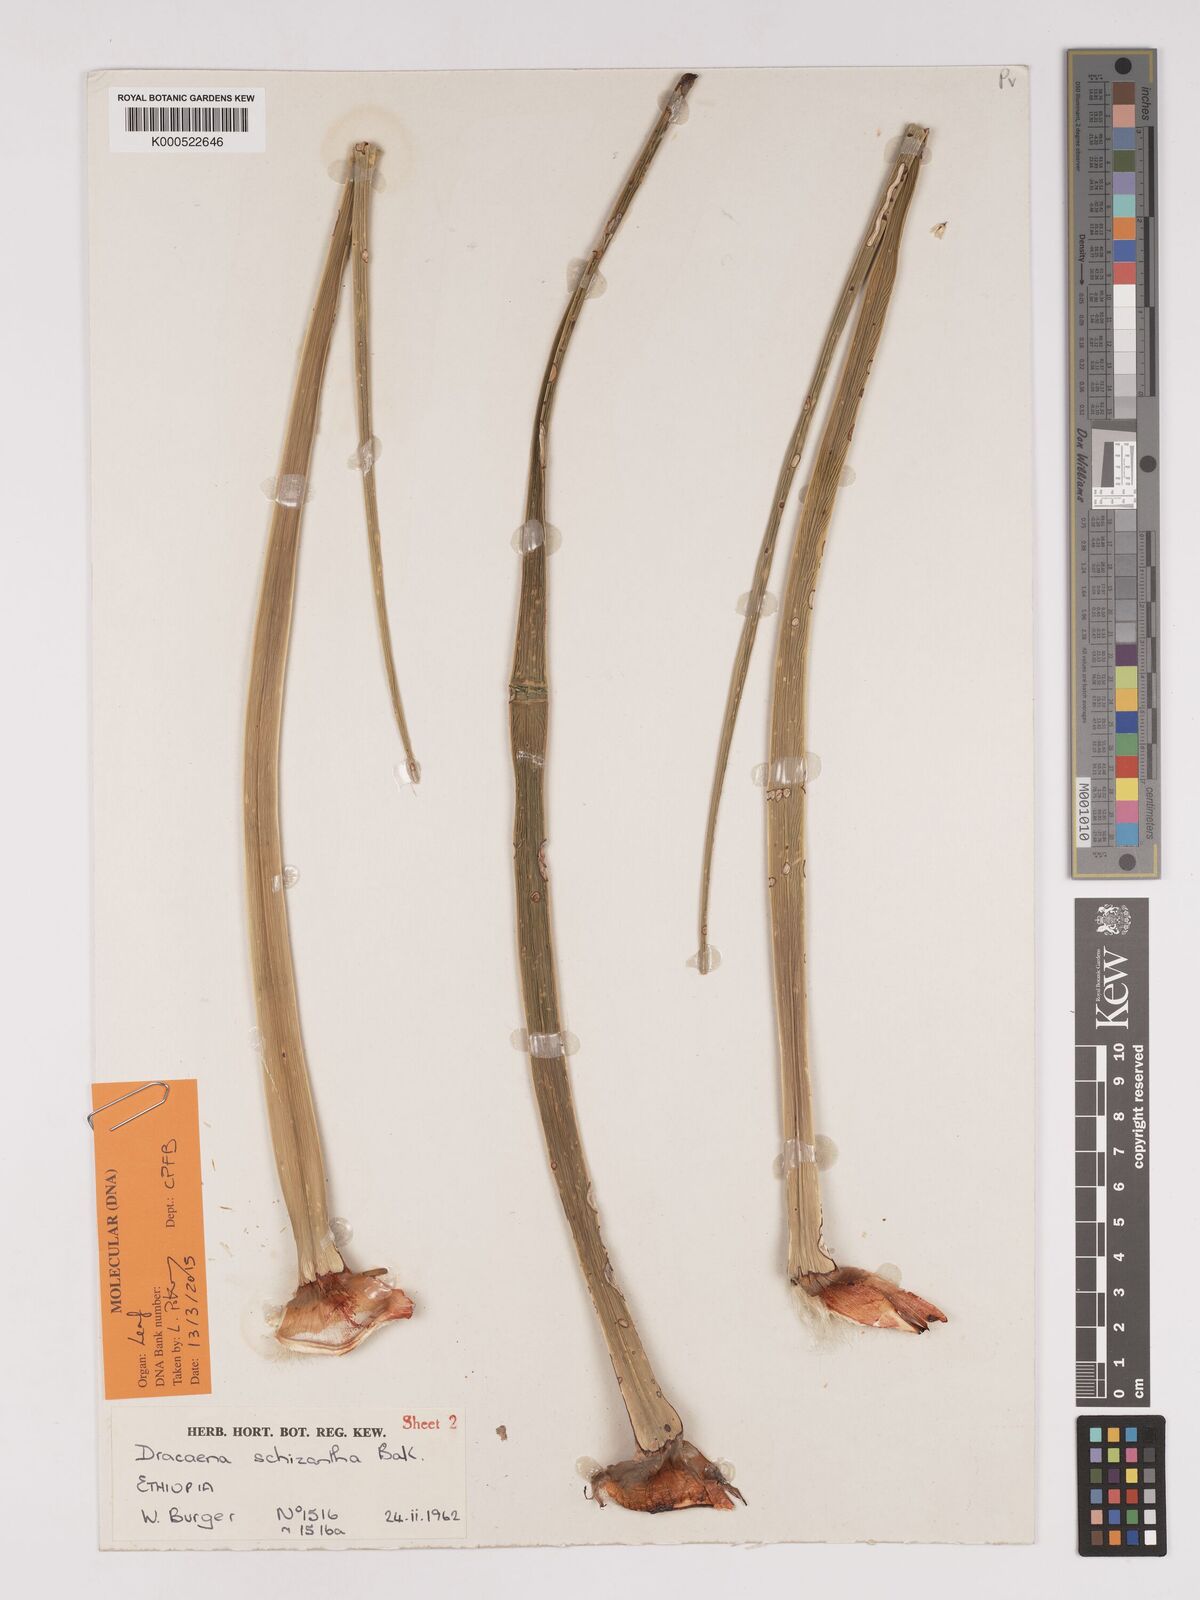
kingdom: Plantae
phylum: Tracheophyta
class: Liliopsida
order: Asparagales
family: Asparagaceae
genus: Dracaena
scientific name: Dracaena ombet
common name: Gabal elba dragon tree
